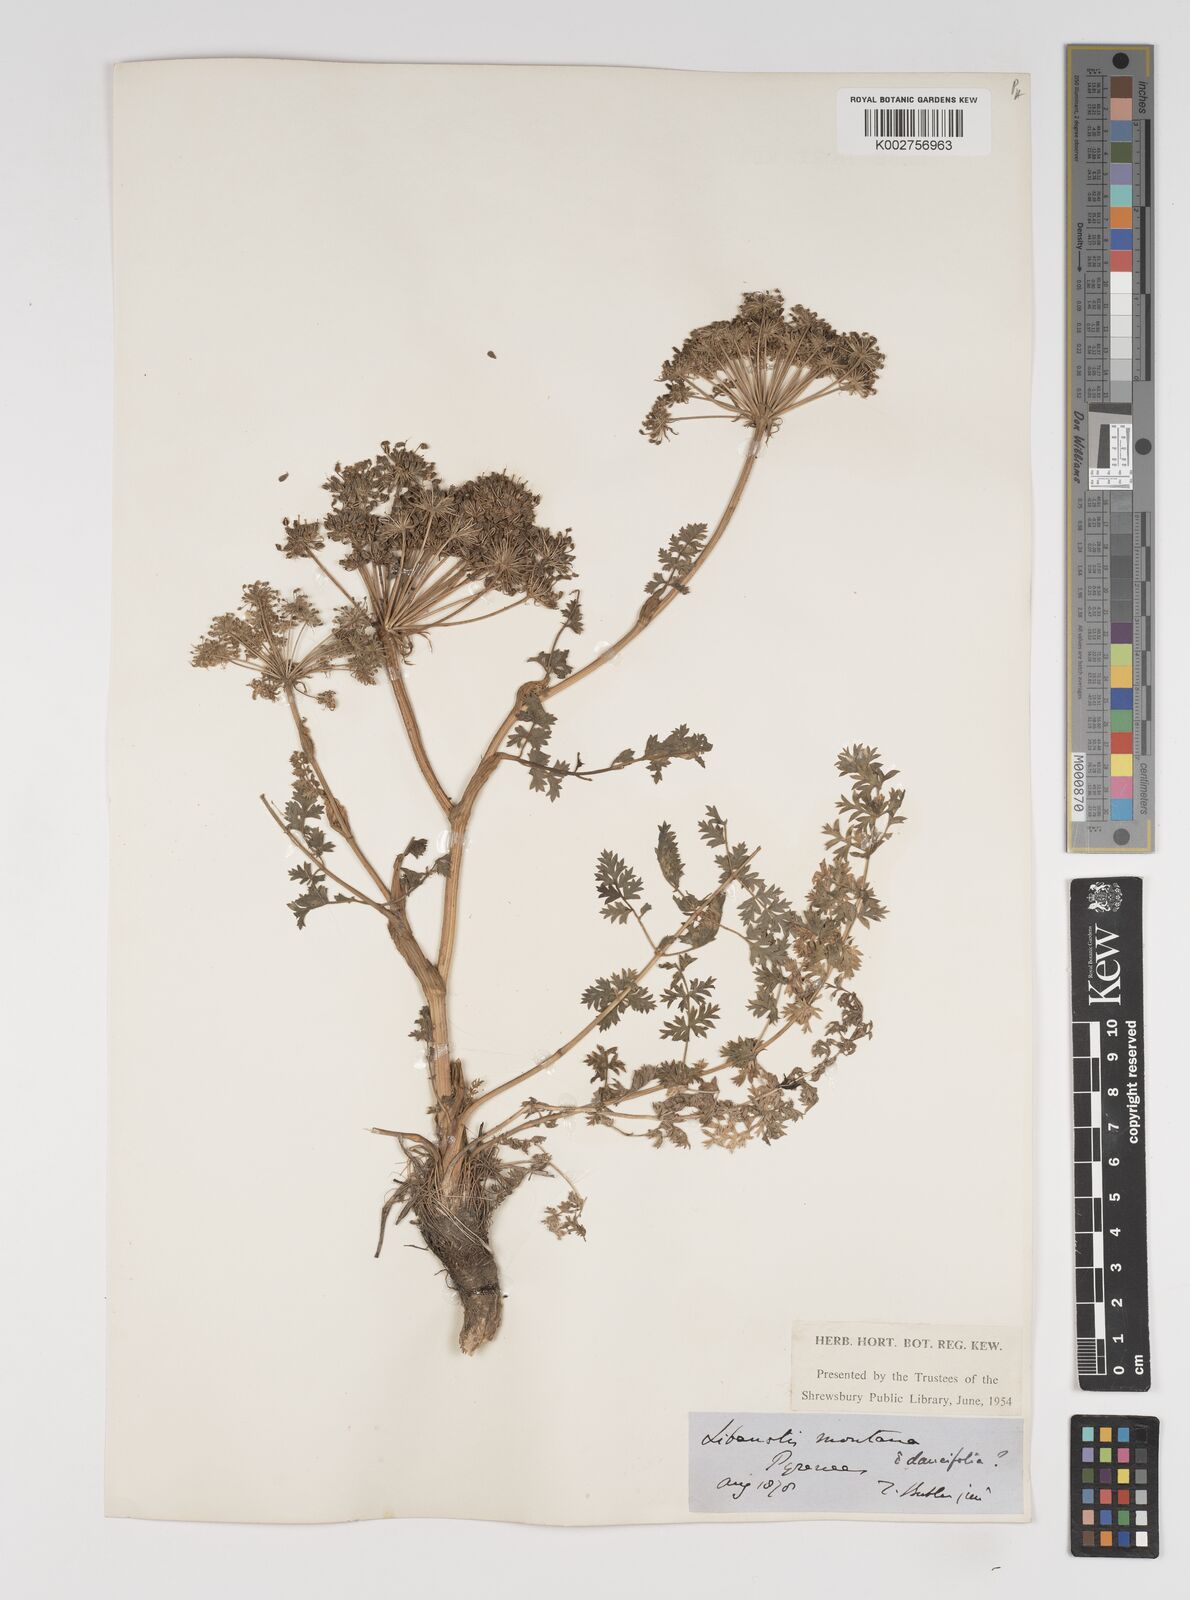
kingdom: Plantae
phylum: Tracheophyta
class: Magnoliopsida
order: Apiales
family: Apiaceae
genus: Seseli
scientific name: Seseli libanotis
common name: Mooncarrot
